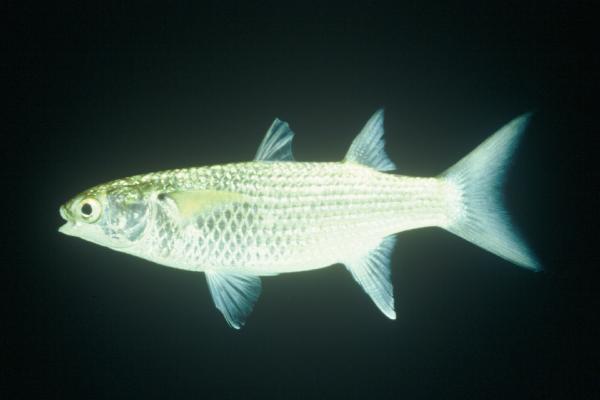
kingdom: Animalia
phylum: Chordata
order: Mugiliformes
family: Mugilidae
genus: Crenimugil
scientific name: Crenimugil buchanani
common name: Bluetail mullet
